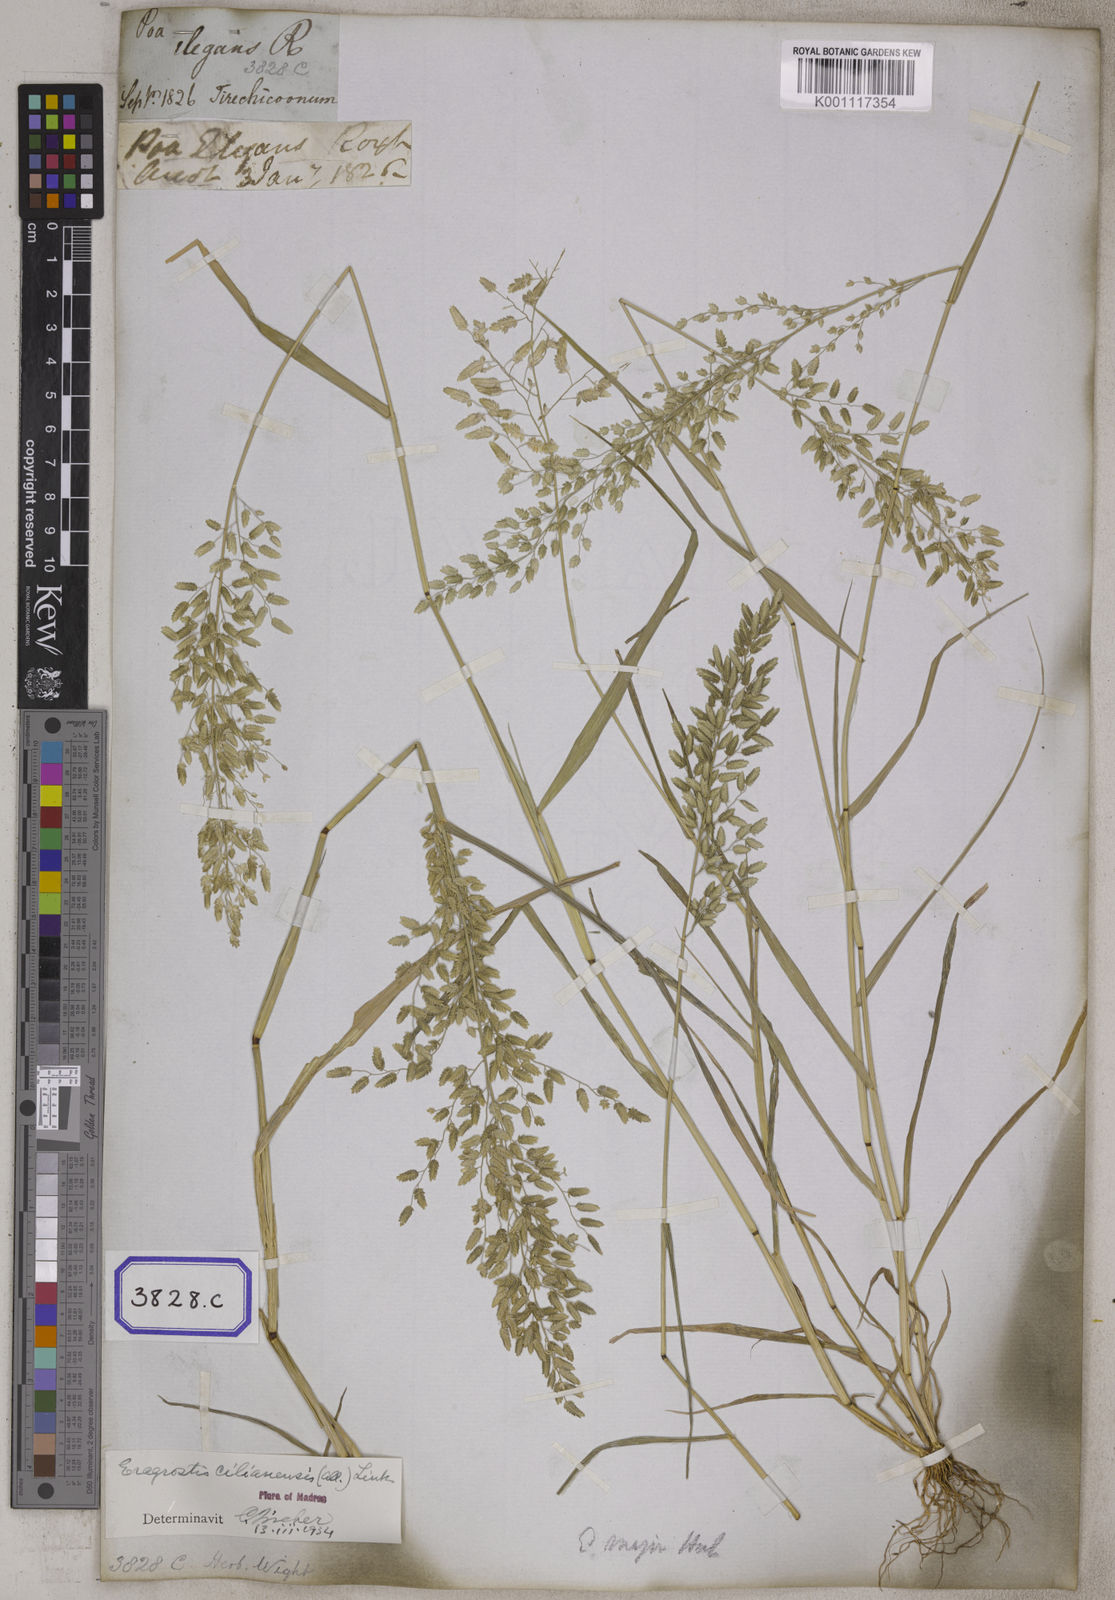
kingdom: Plantae
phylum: Tracheophyta
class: Liliopsida
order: Poales
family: Poaceae
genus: Eragrostis
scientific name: Eragrostis
